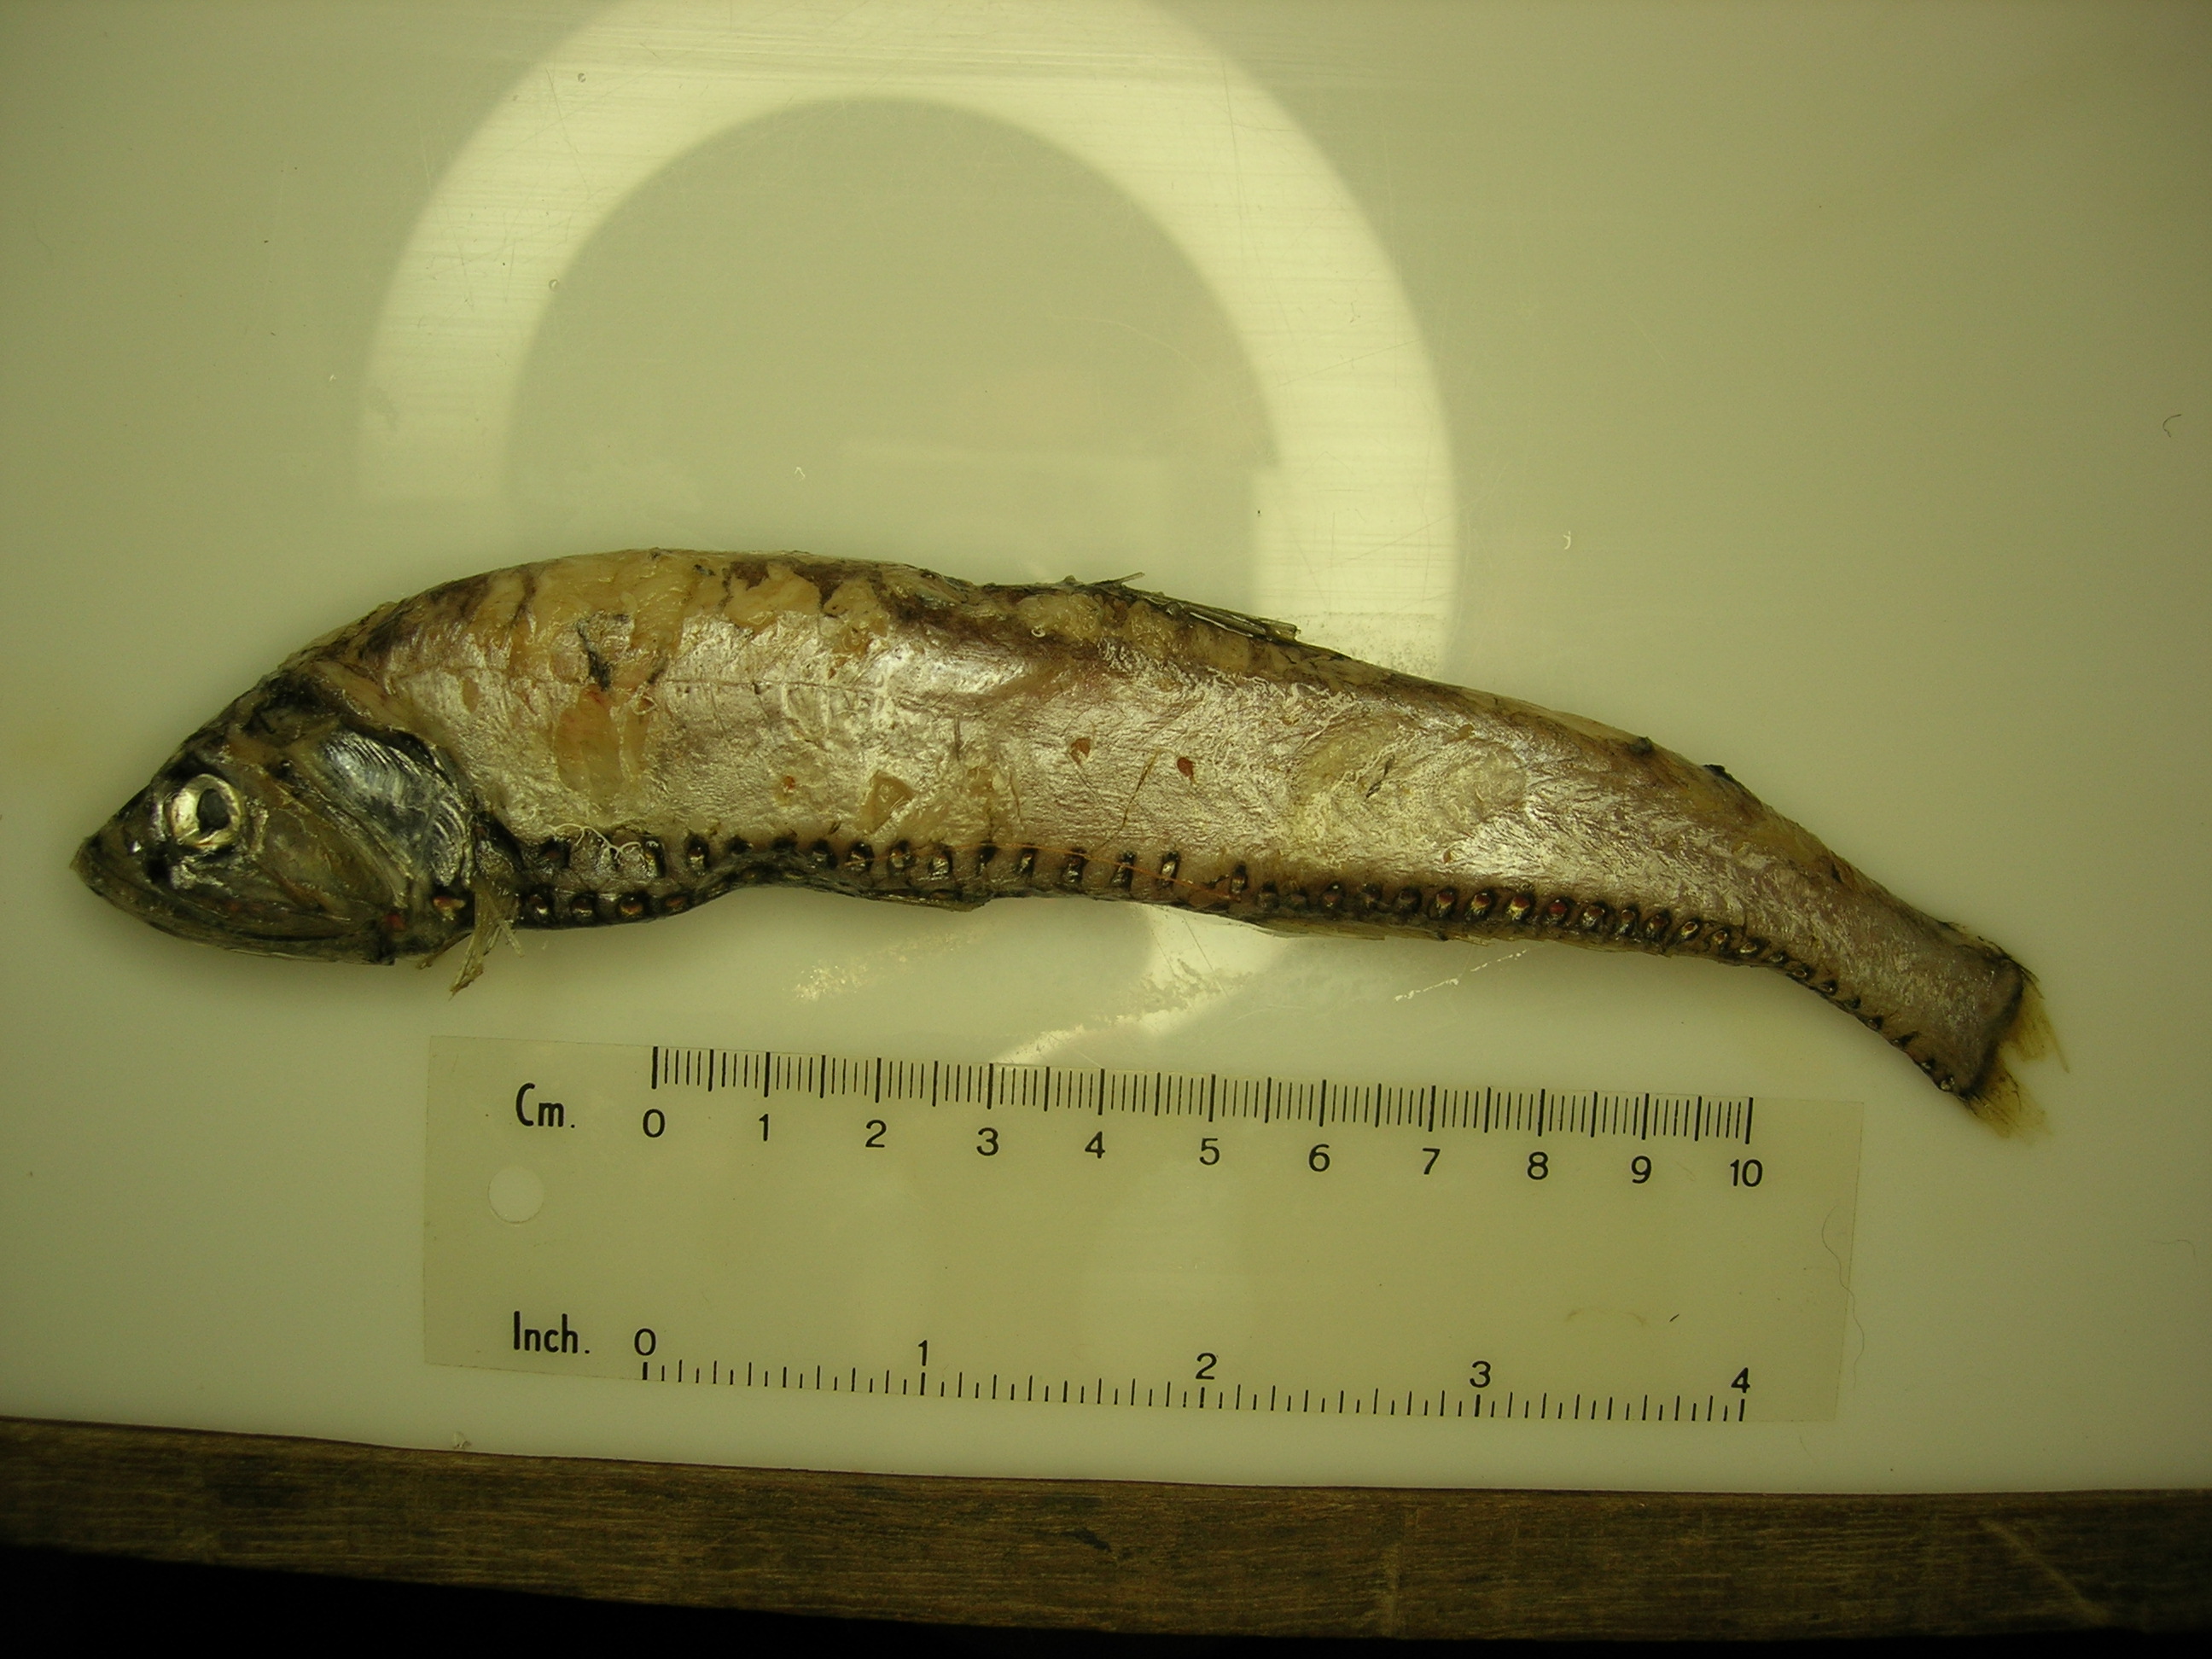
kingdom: Animalia
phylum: Chordata
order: Stomiiformes
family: Phosichthyidae
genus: Polymetme
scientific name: Polymetme corythaeola
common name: Rendezvous fish
